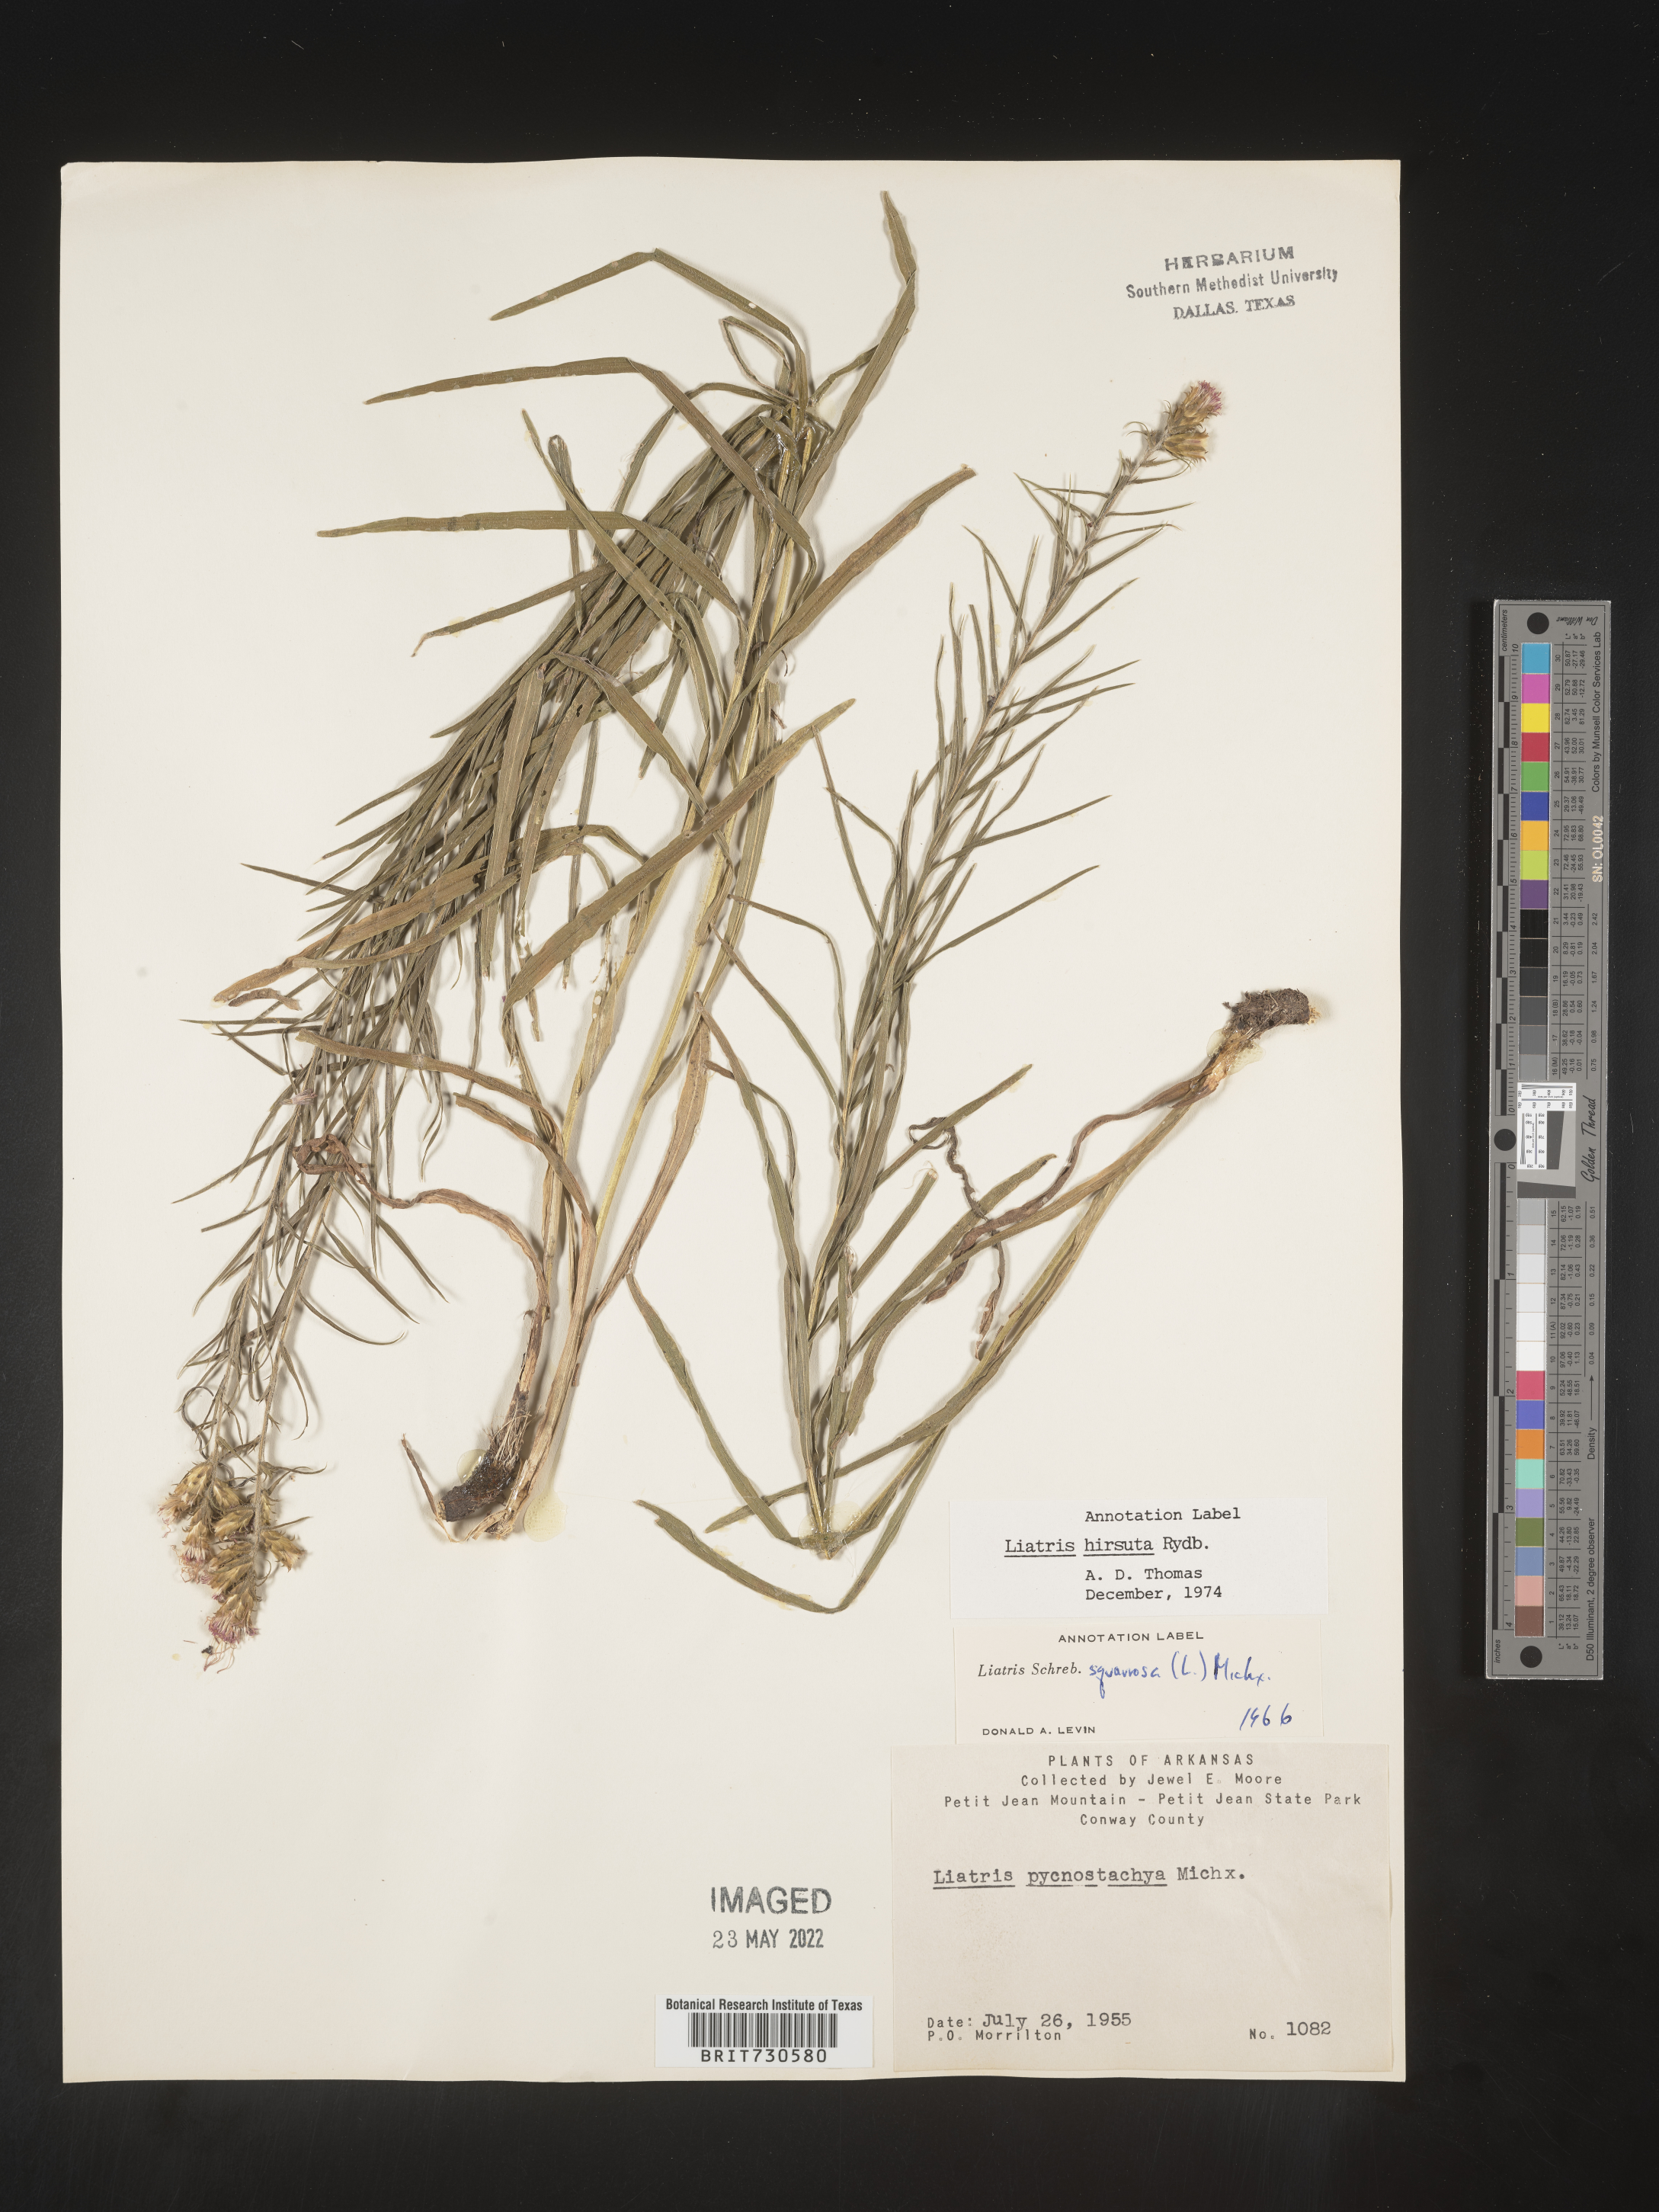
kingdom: Plantae
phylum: Tracheophyta
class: Magnoliopsida
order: Asterales
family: Asteraceae
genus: Liatris
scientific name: Liatris hirsuta
